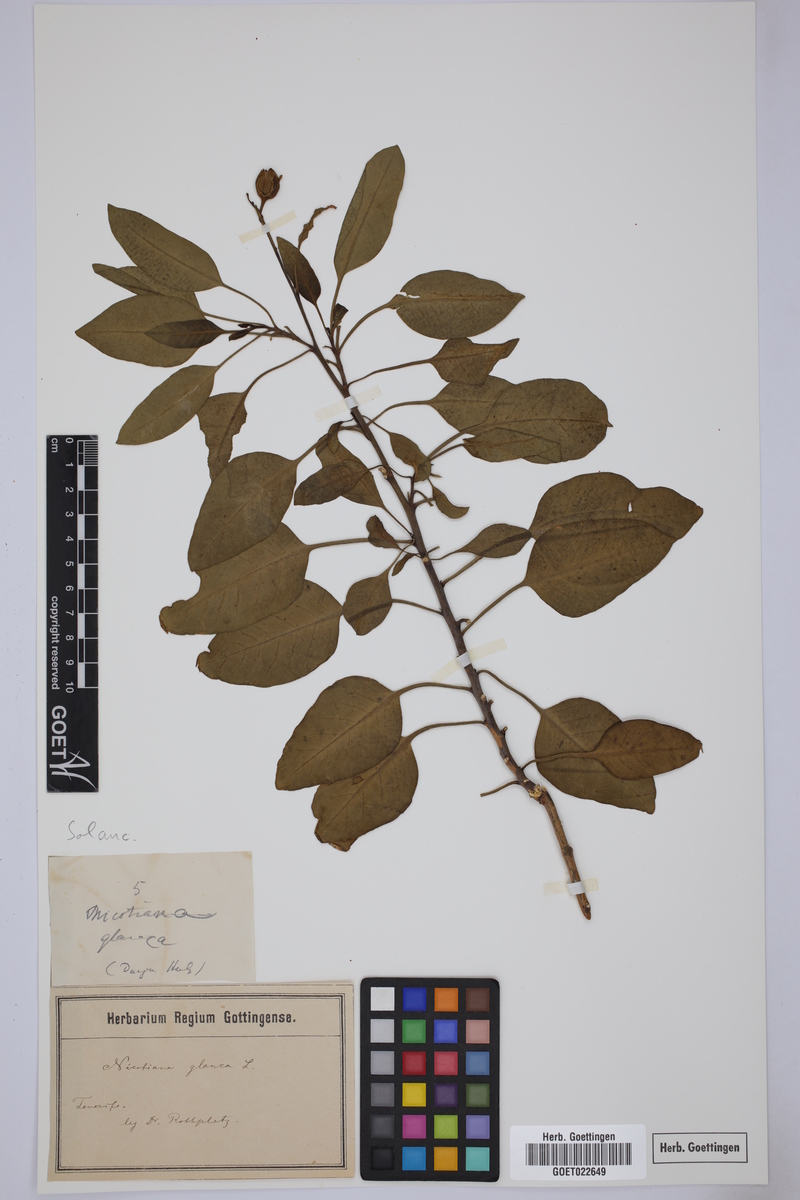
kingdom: Plantae
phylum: Tracheophyta
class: Magnoliopsida
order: Solanales
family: Solanaceae
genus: Nicotiana
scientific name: Nicotiana glauca
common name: Tree tobacco
